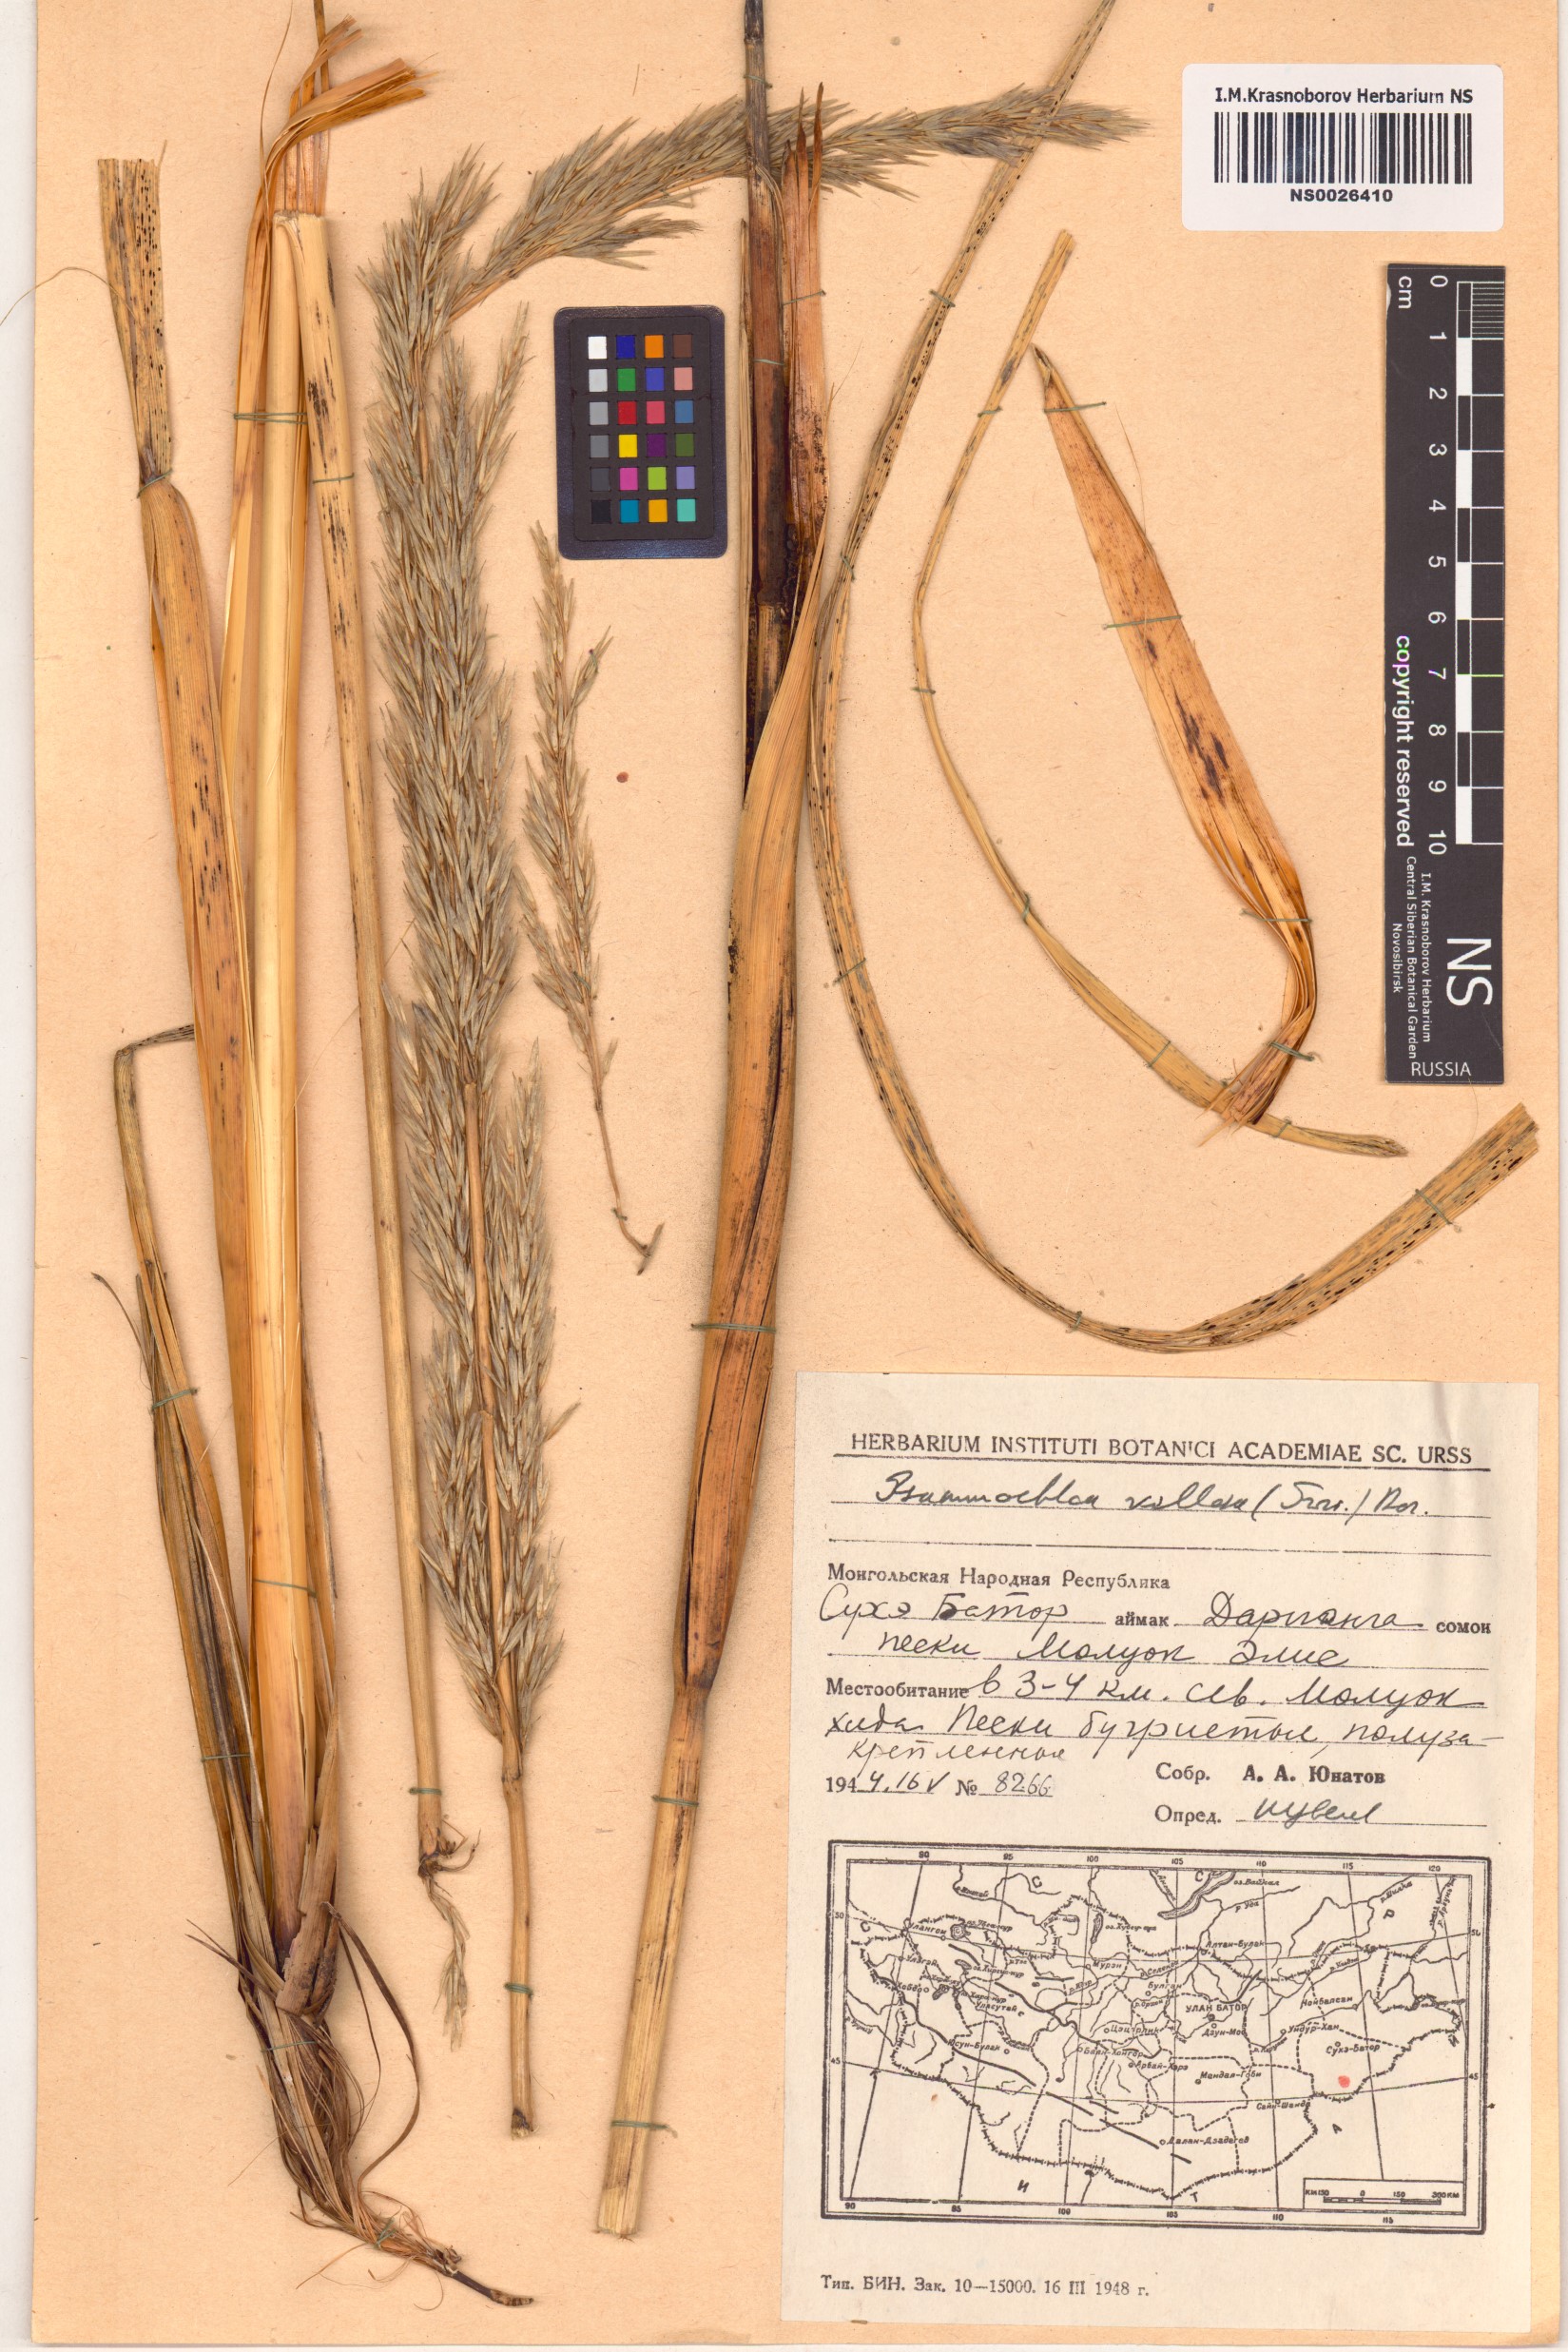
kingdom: Plantae
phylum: Tracheophyta
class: Liliopsida
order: Poales
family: Poaceae
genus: Psammochloa
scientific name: Psammochloa villosa
